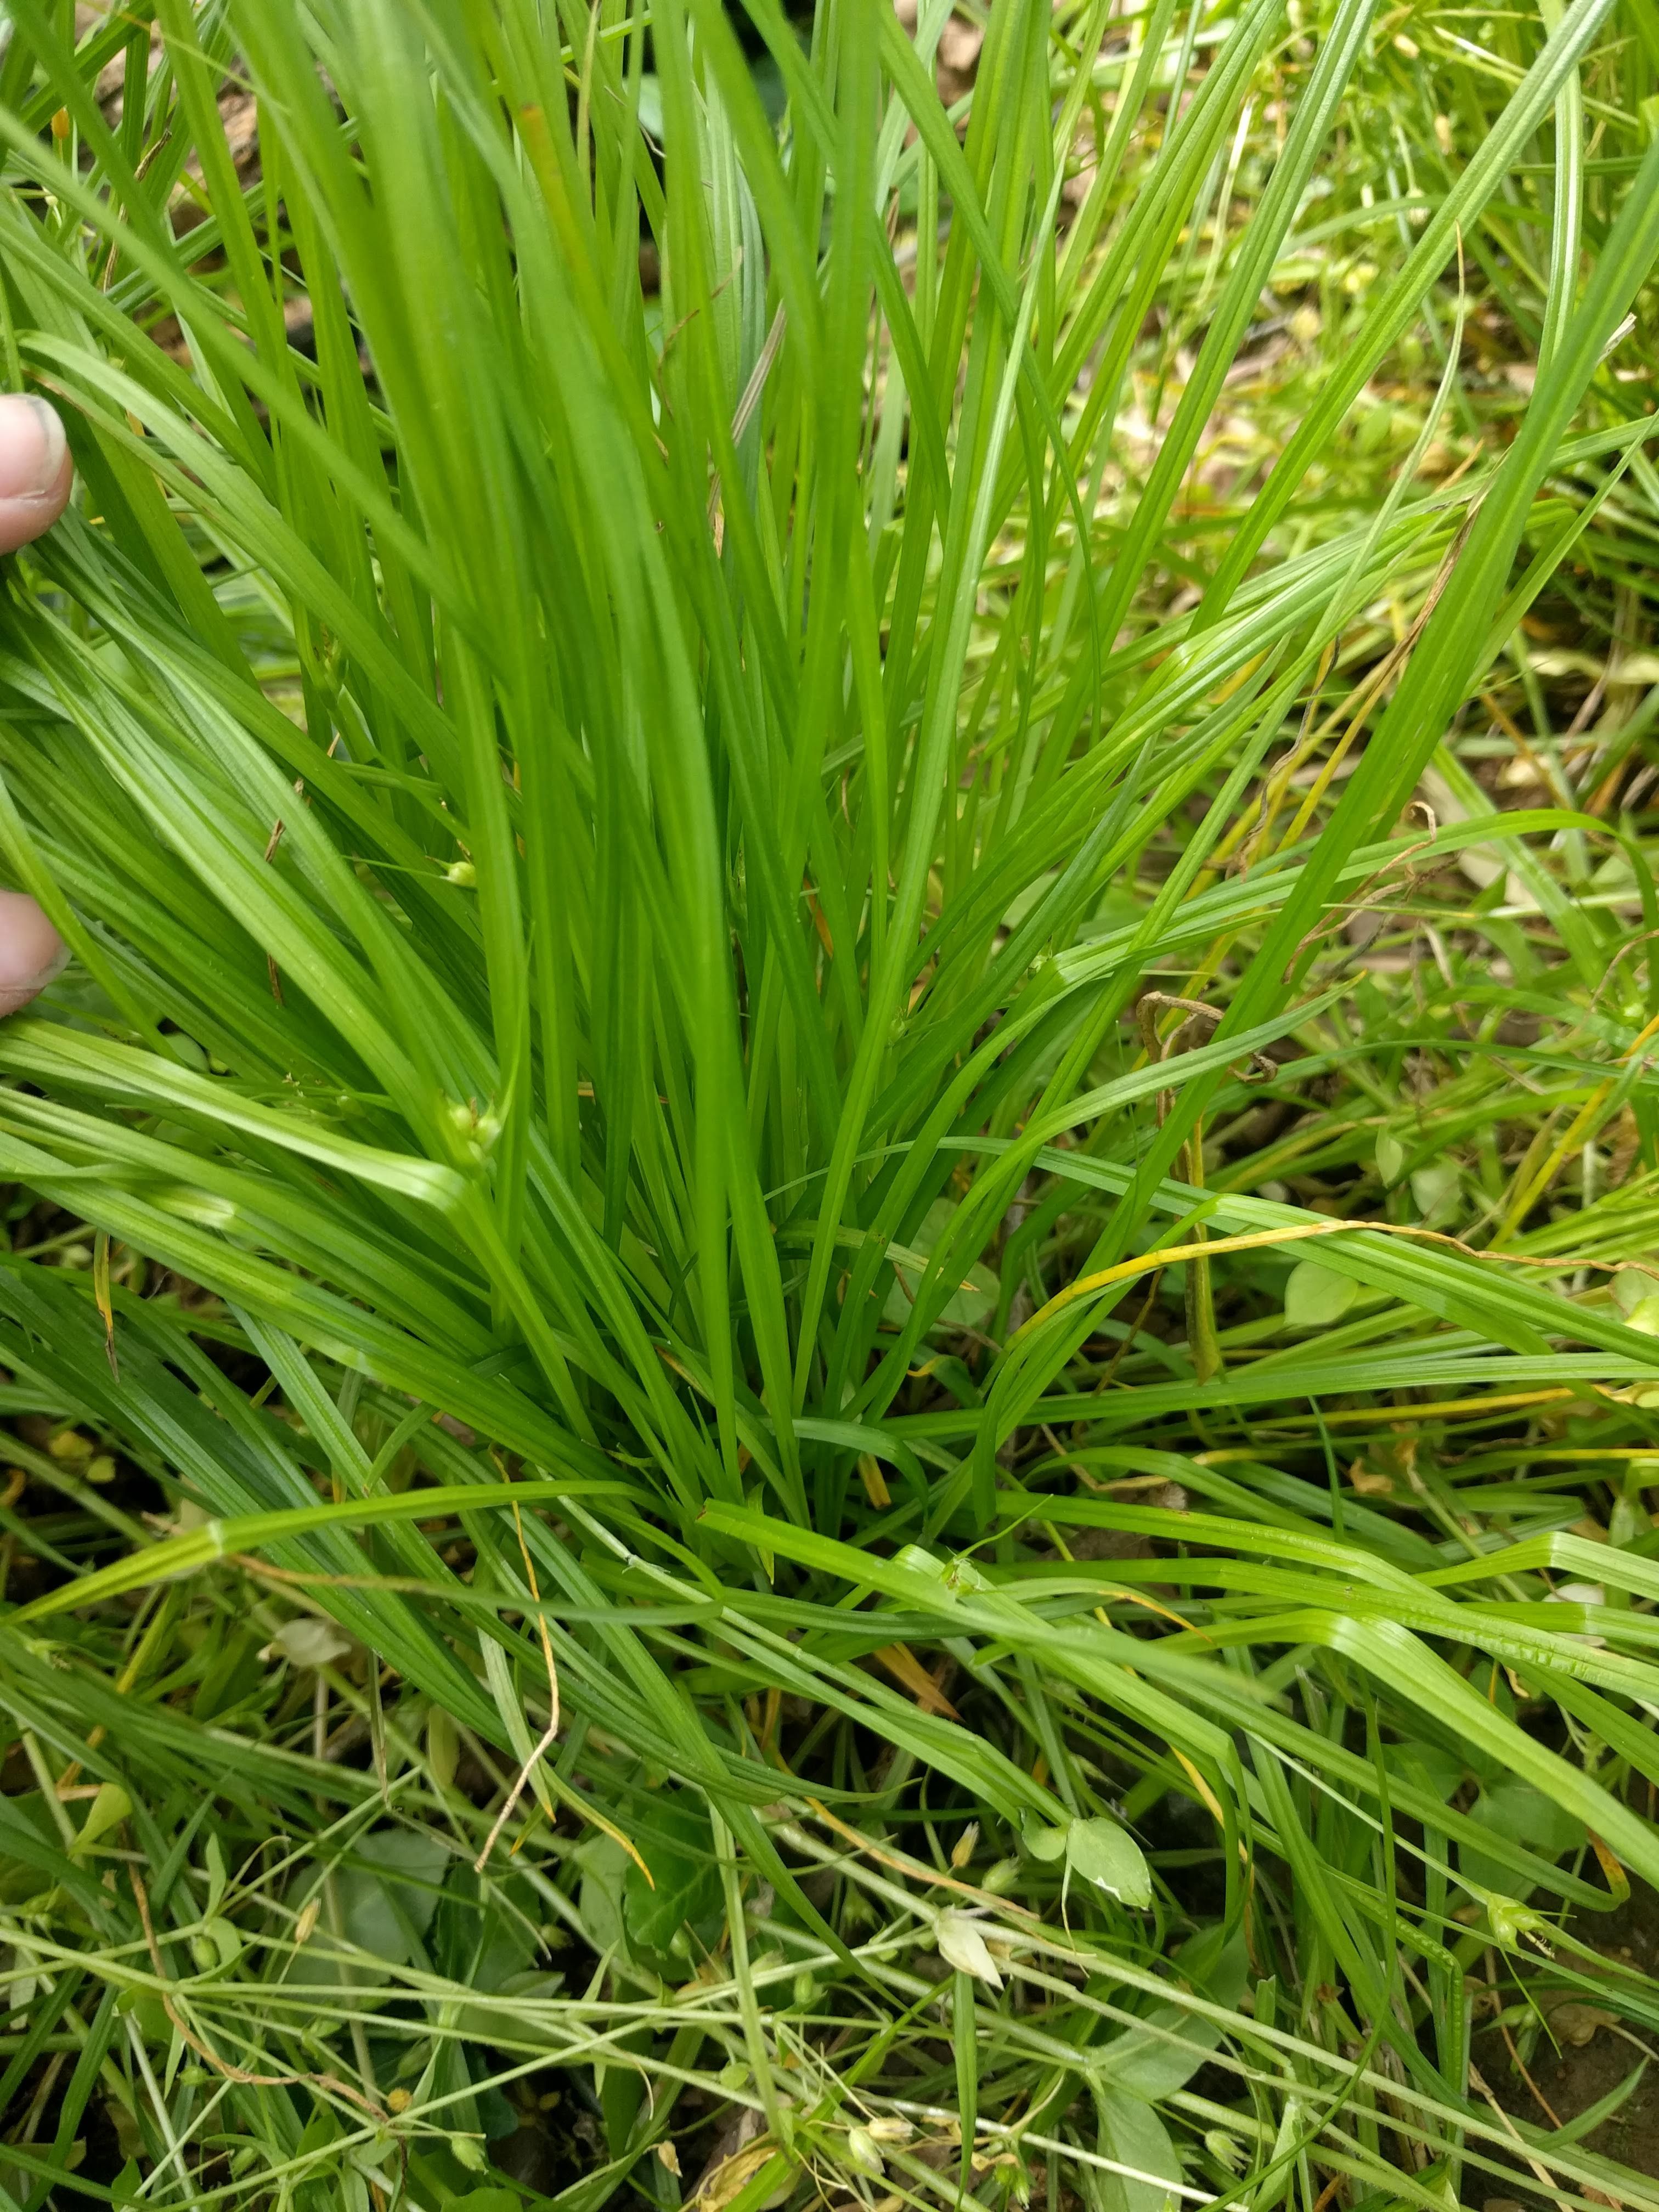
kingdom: Plantae
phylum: Tracheophyta
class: Liliopsida
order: Poales
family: Cyperaceae
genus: Carex
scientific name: Carex jamesii
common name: Grass sedge
